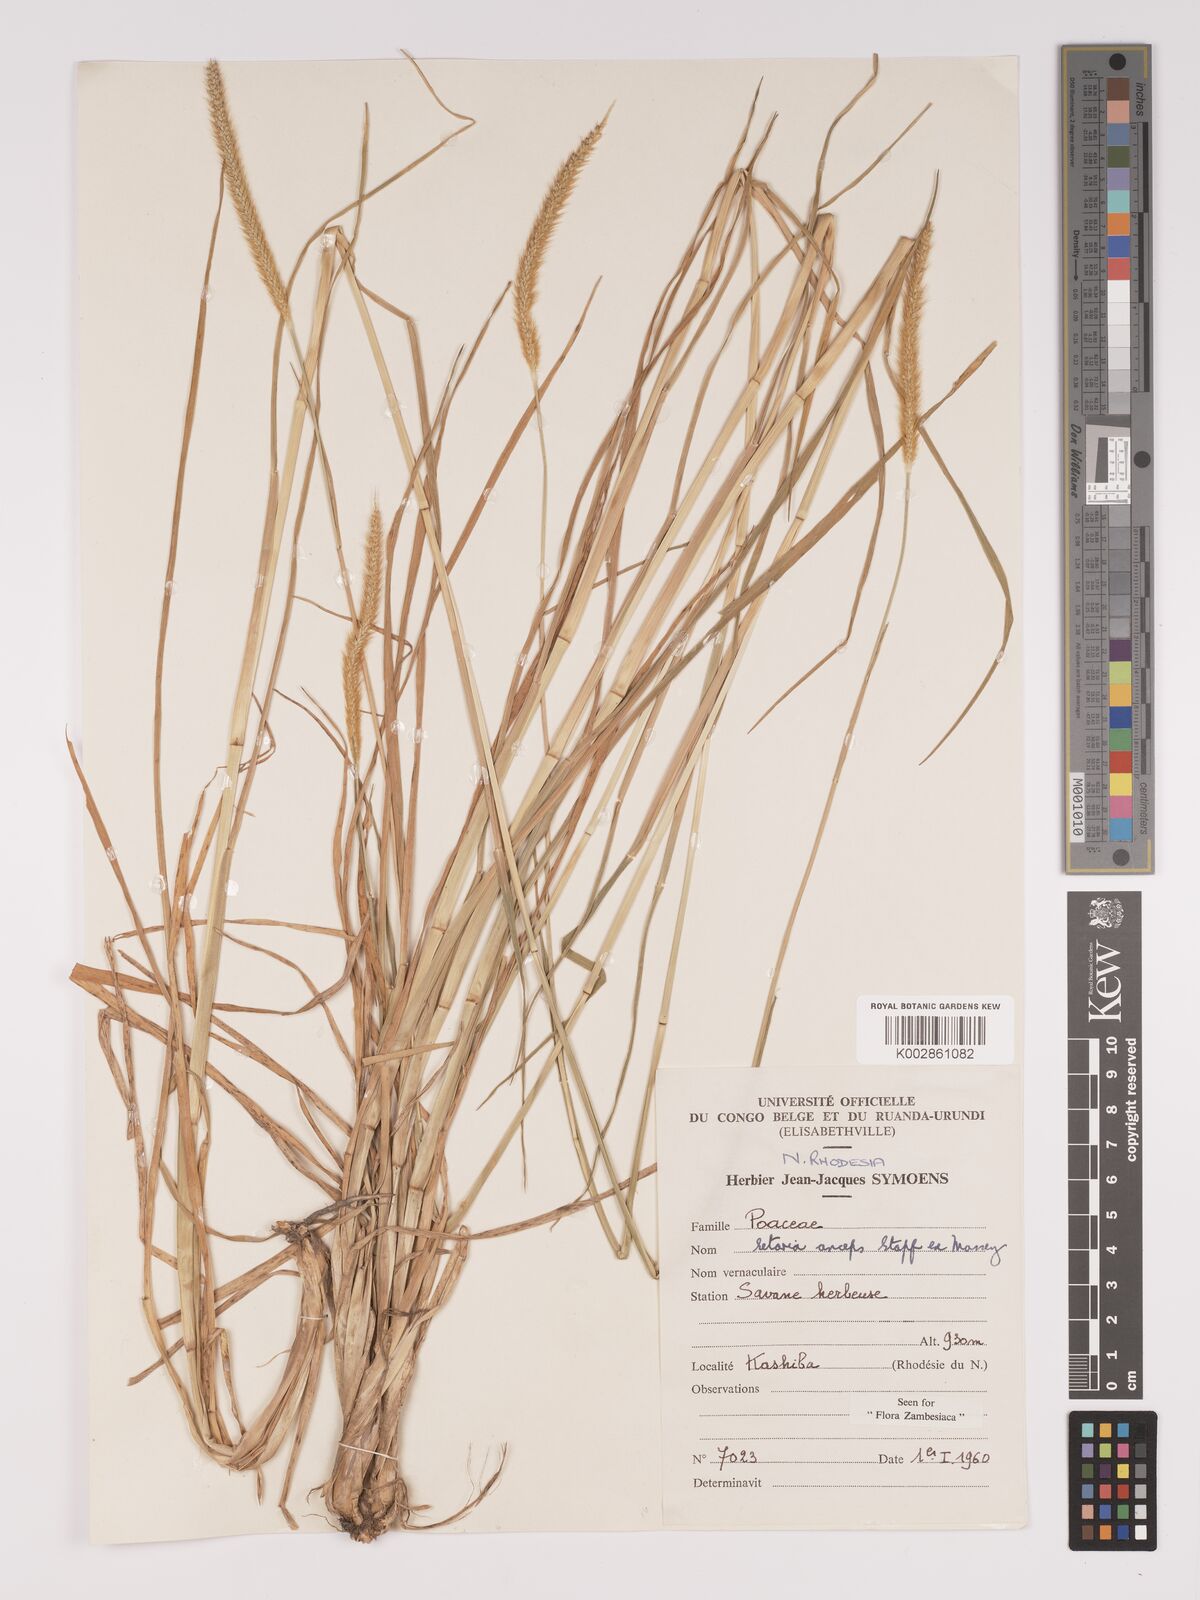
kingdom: Plantae
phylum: Tracheophyta
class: Liliopsida
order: Poales
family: Poaceae
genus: Setaria
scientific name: Setaria sphacelata
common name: African bristlegrass
